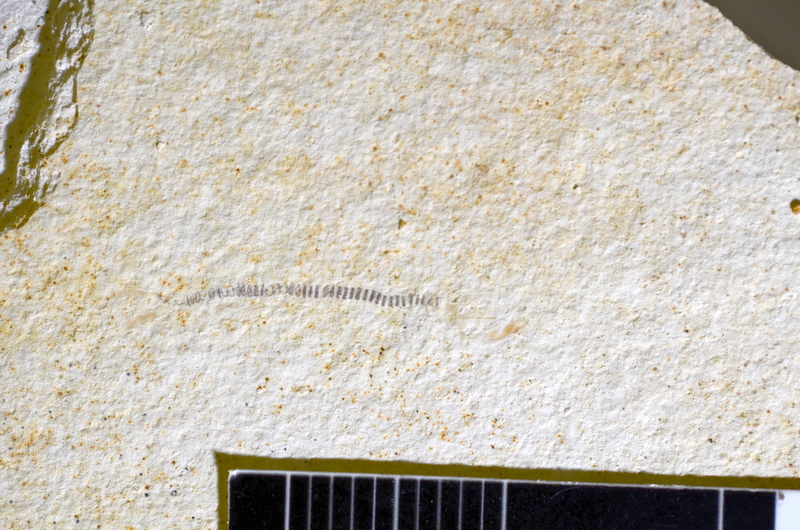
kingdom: Animalia
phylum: Chordata
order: Salmoniformes
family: Orthogonikleithridae
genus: Orthogonikleithrus
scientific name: Orthogonikleithrus hoelli
